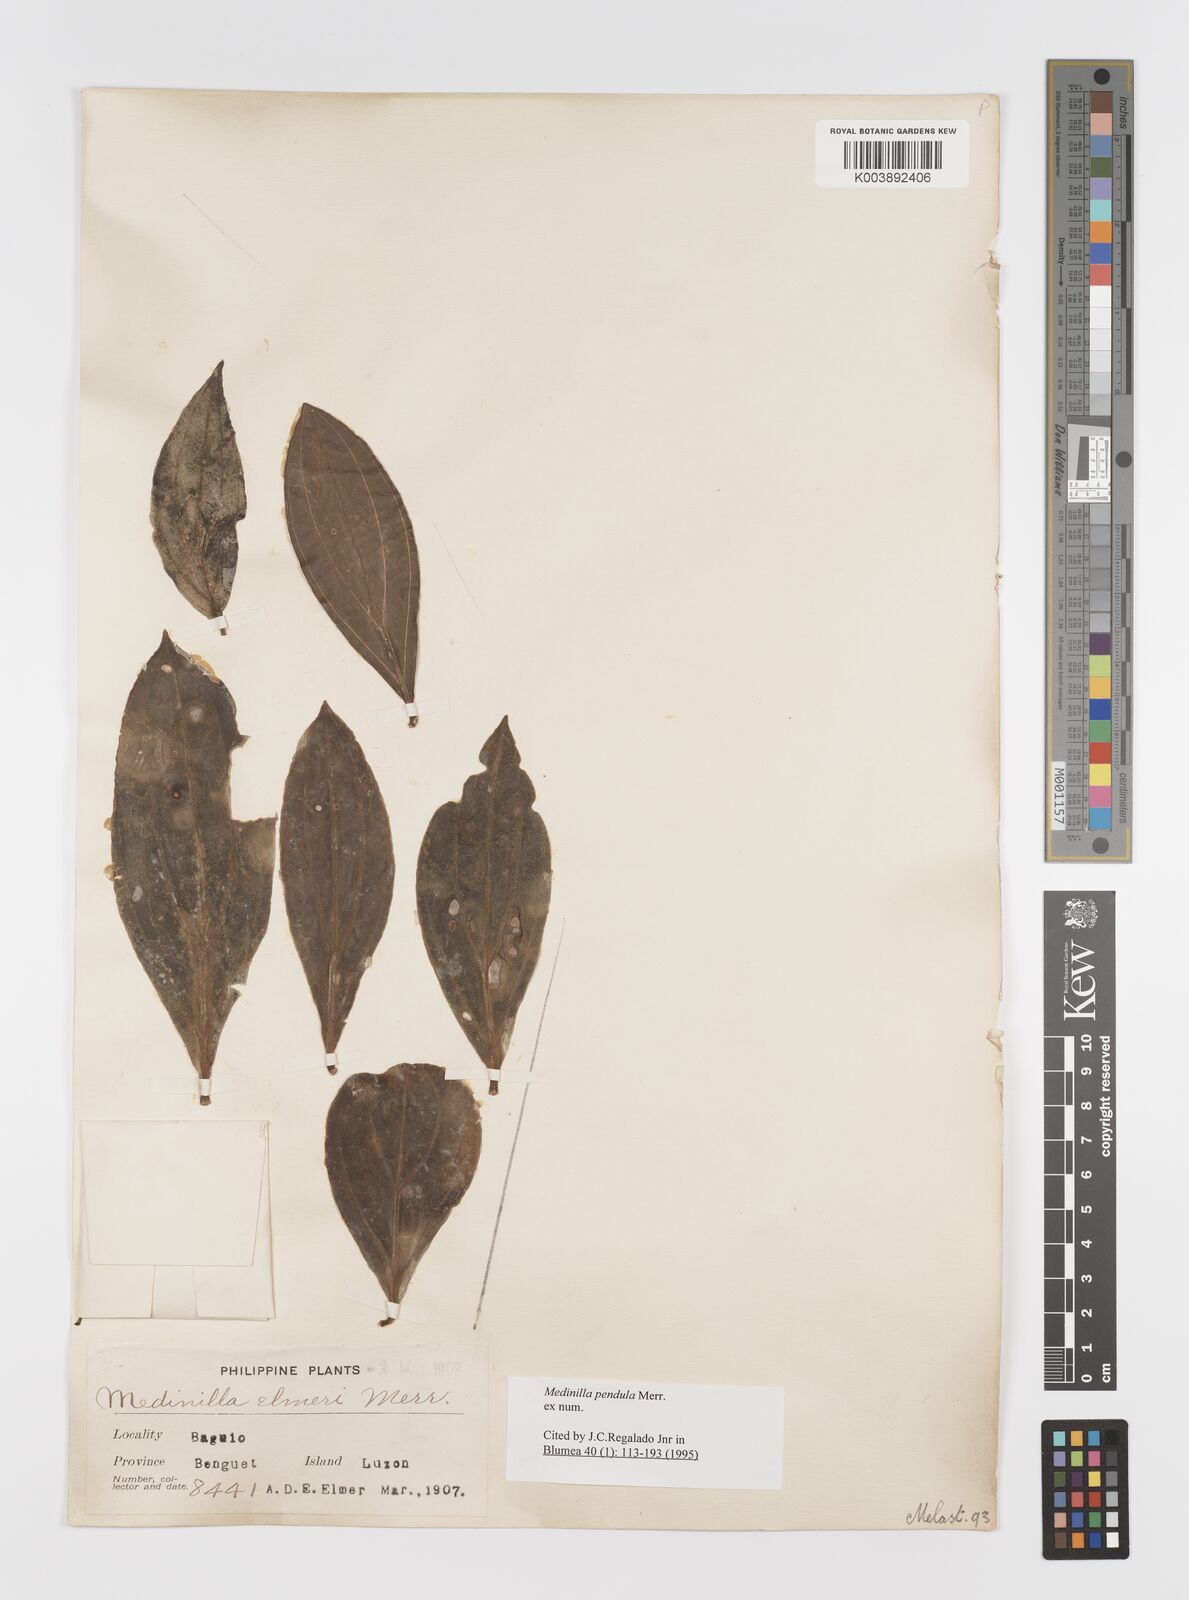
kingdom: Plantae
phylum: Tracheophyta
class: Magnoliopsida
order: Myrtales
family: Melastomataceae
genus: Medinilla
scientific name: Medinilla pendula
